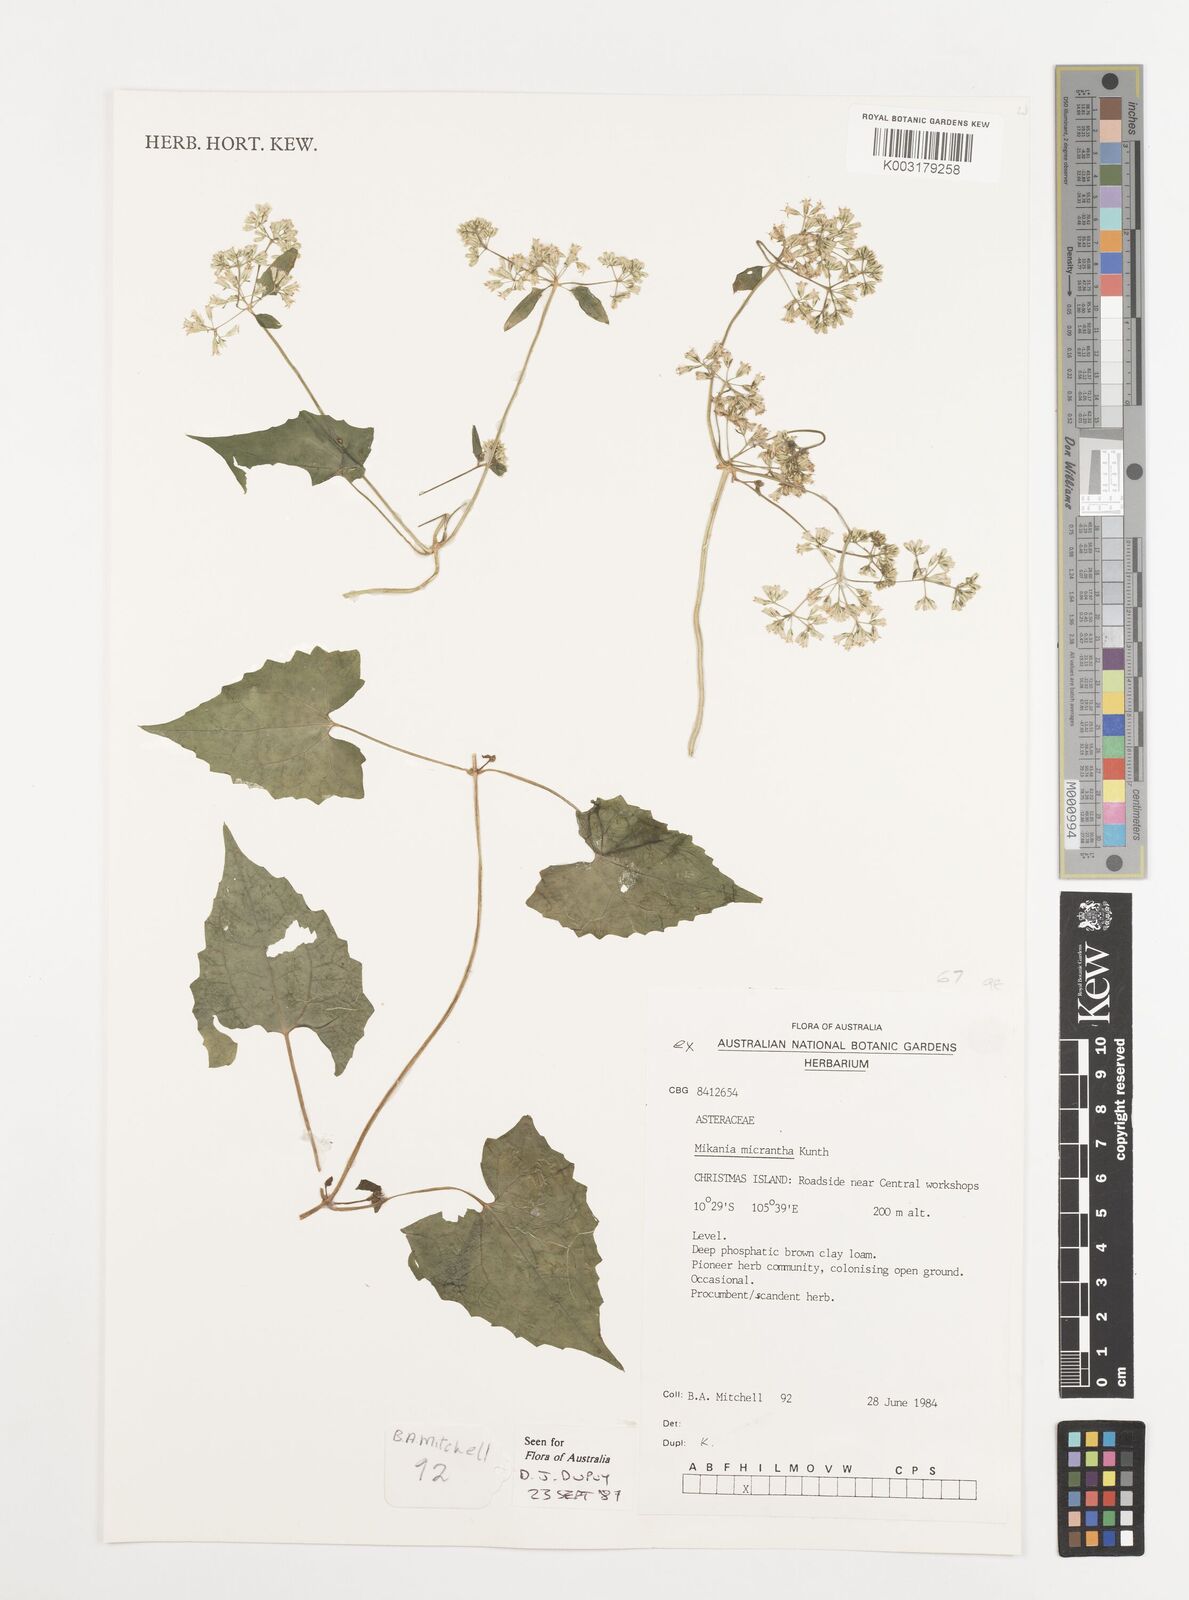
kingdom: Plantae
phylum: Tracheophyta
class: Magnoliopsida
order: Asterales
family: Asteraceae
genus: Mikania
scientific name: Mikania micrantha
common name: Mile-a-minute
